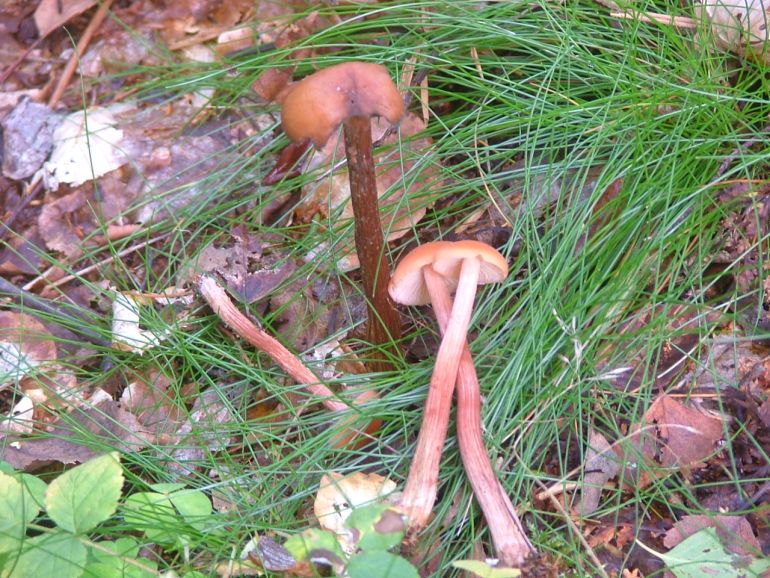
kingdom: Fungi
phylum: Basidiomycota
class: Agaricomycetes
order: Agaricales
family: Hydnangiaceae
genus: Laccaria
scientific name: Laccaria proxima
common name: stor ametysthat
